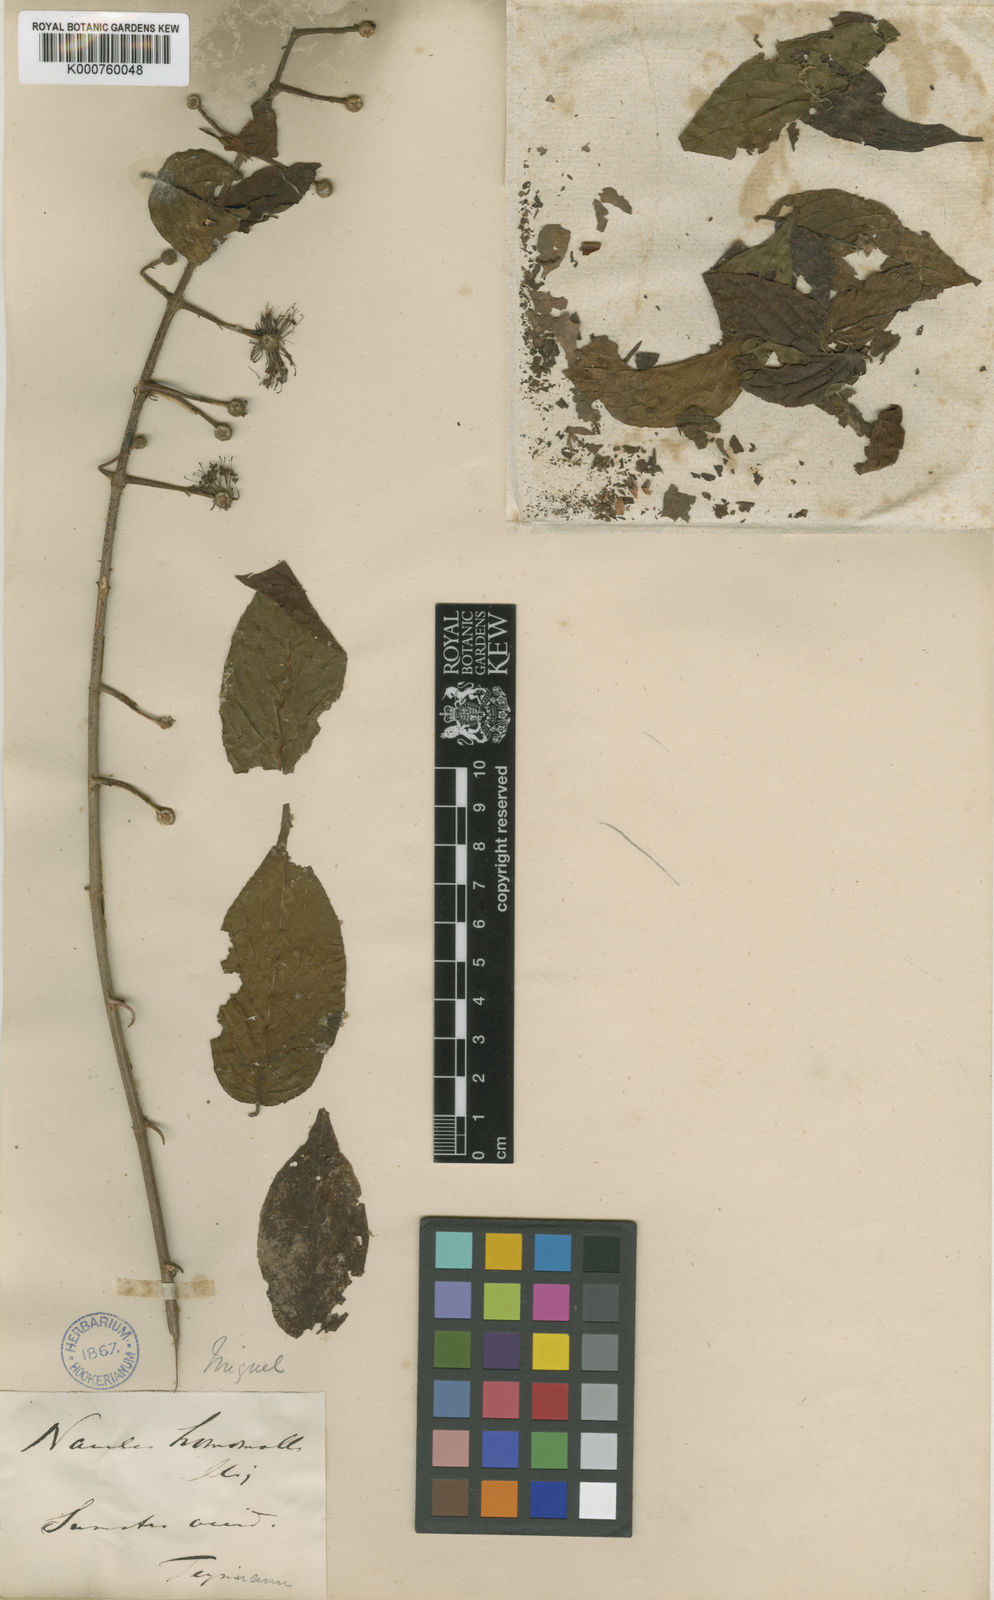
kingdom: Plantae
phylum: Tracheophyta
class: Magnoliopsida
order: Gentianales
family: Rubiaceae
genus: Uncaria
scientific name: Uncaria homomalla
